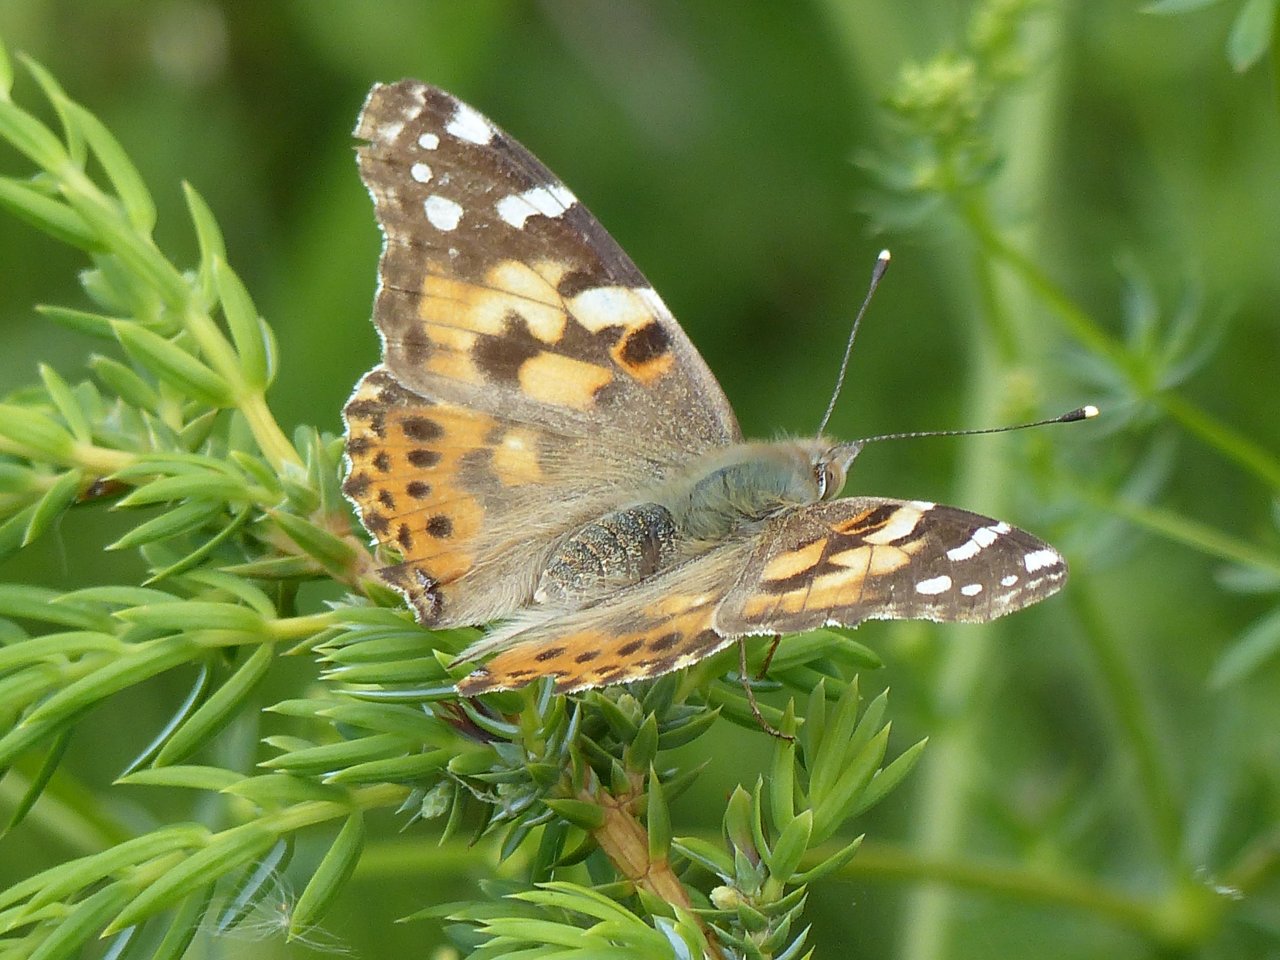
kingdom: Animalia
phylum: Arthropoda
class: Insecta
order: Lepidoptera
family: Nymphalidae
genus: Vanessa
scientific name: Vanessa cardui
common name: Painted Lady
